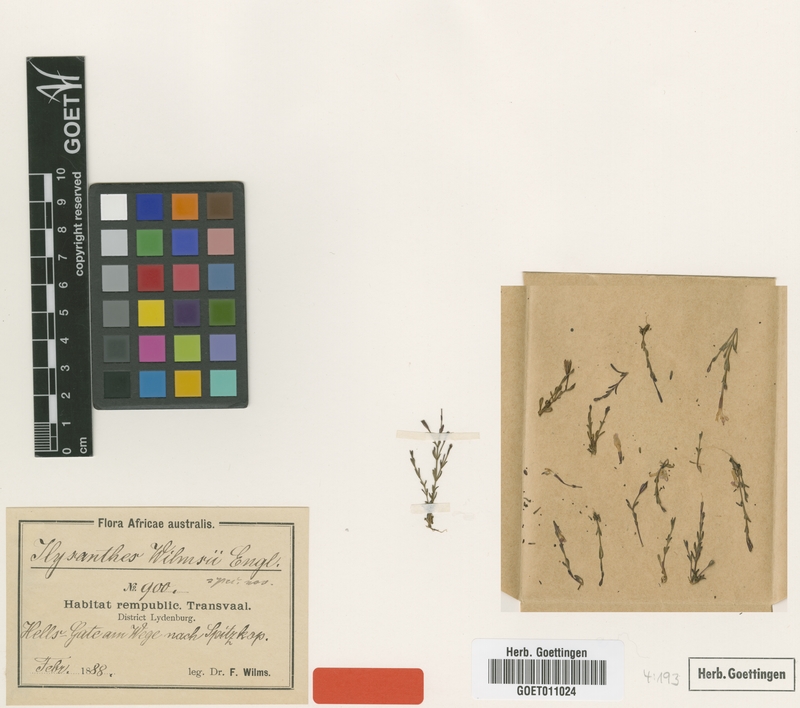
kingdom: Plantae
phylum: Tracheophyta
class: Magnoliopsida
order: Lamiales
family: Linderniaceae
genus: Linderniella
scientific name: Linderniella wilmsii
